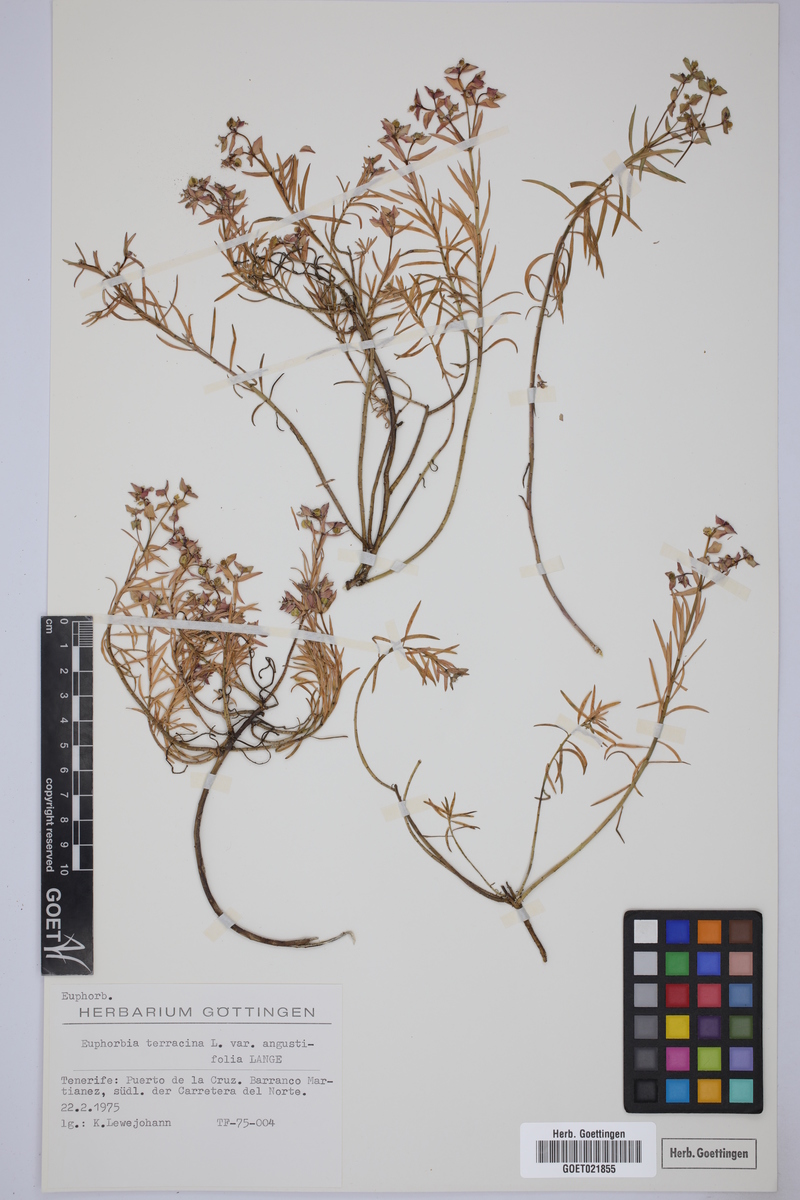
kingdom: Plantae
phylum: Tracheophyta
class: Magnoliopsida
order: Malpighiales
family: Euphorbiaceae
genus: Euphorbia
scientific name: Euphorbia terracina
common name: Geraldton carnation weed
